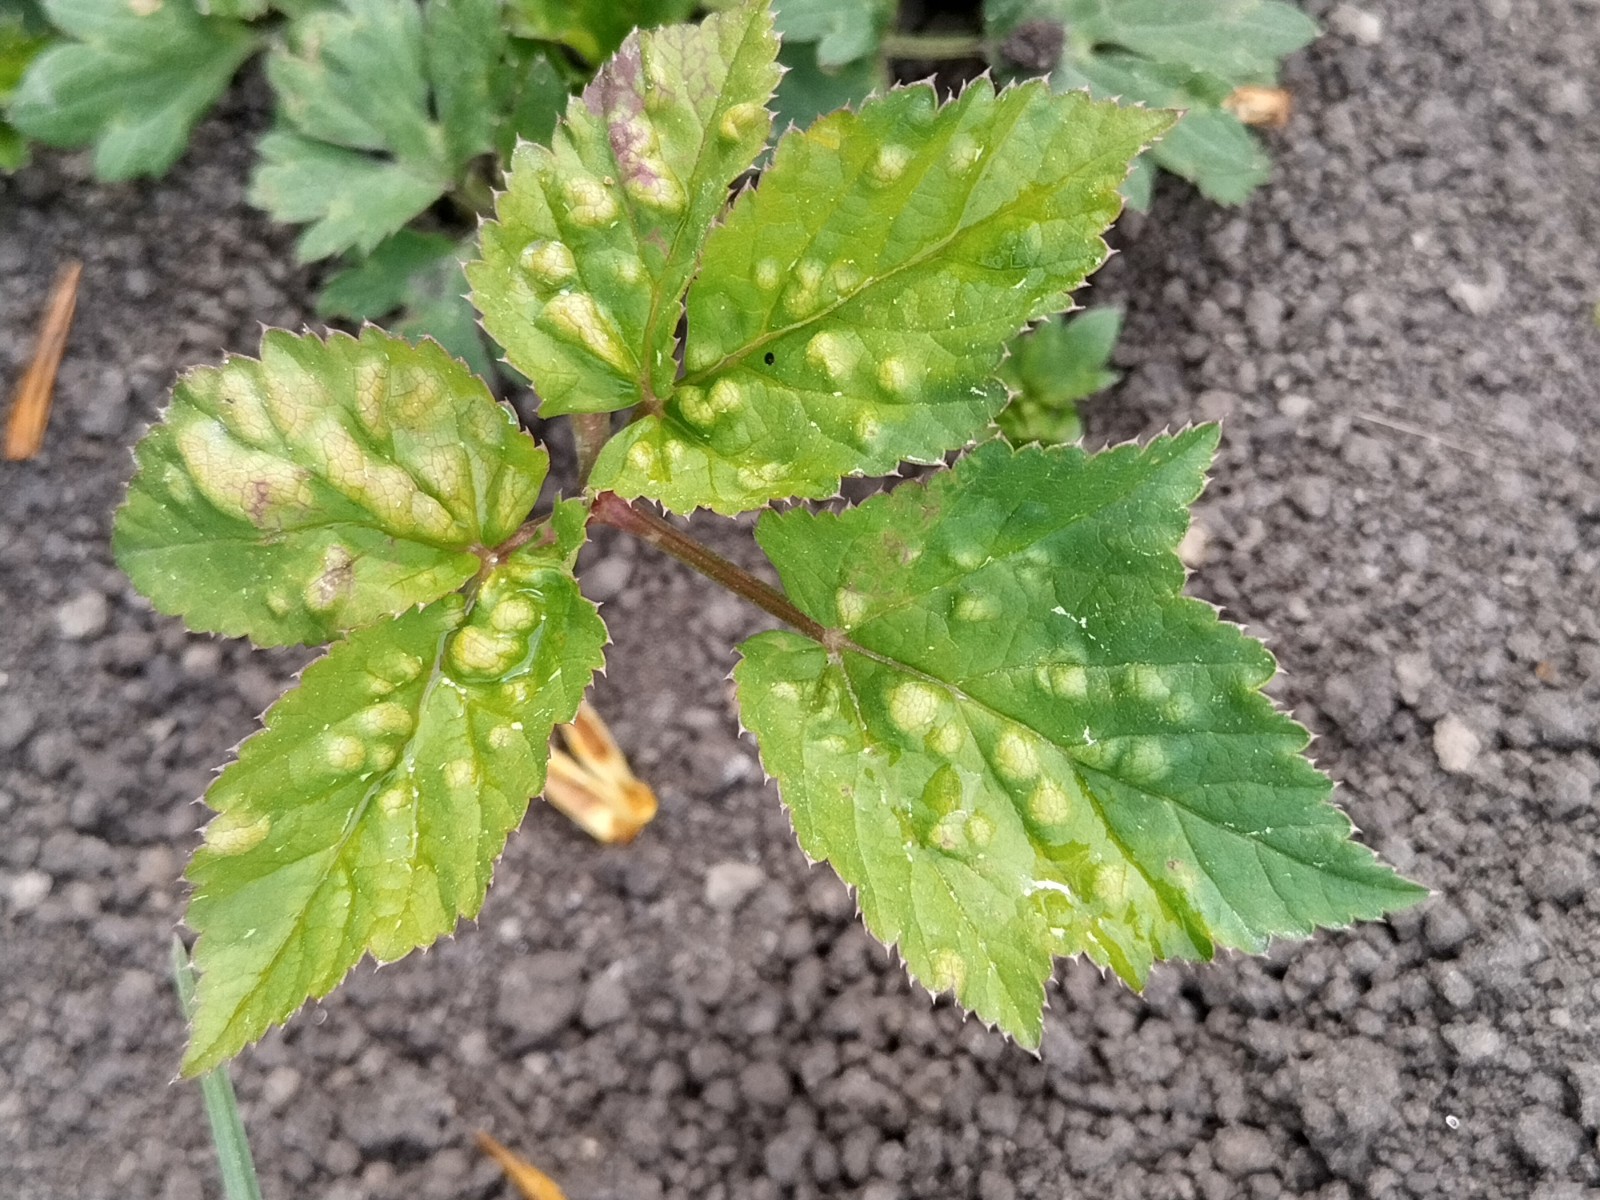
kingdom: Fungi
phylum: Ascomycota
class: Taphrinomycetes
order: Taphrinales
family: Taphrinaceae
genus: Protomyces
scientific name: Protomyces macrosporus
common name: skvalderkål-vablesæk
